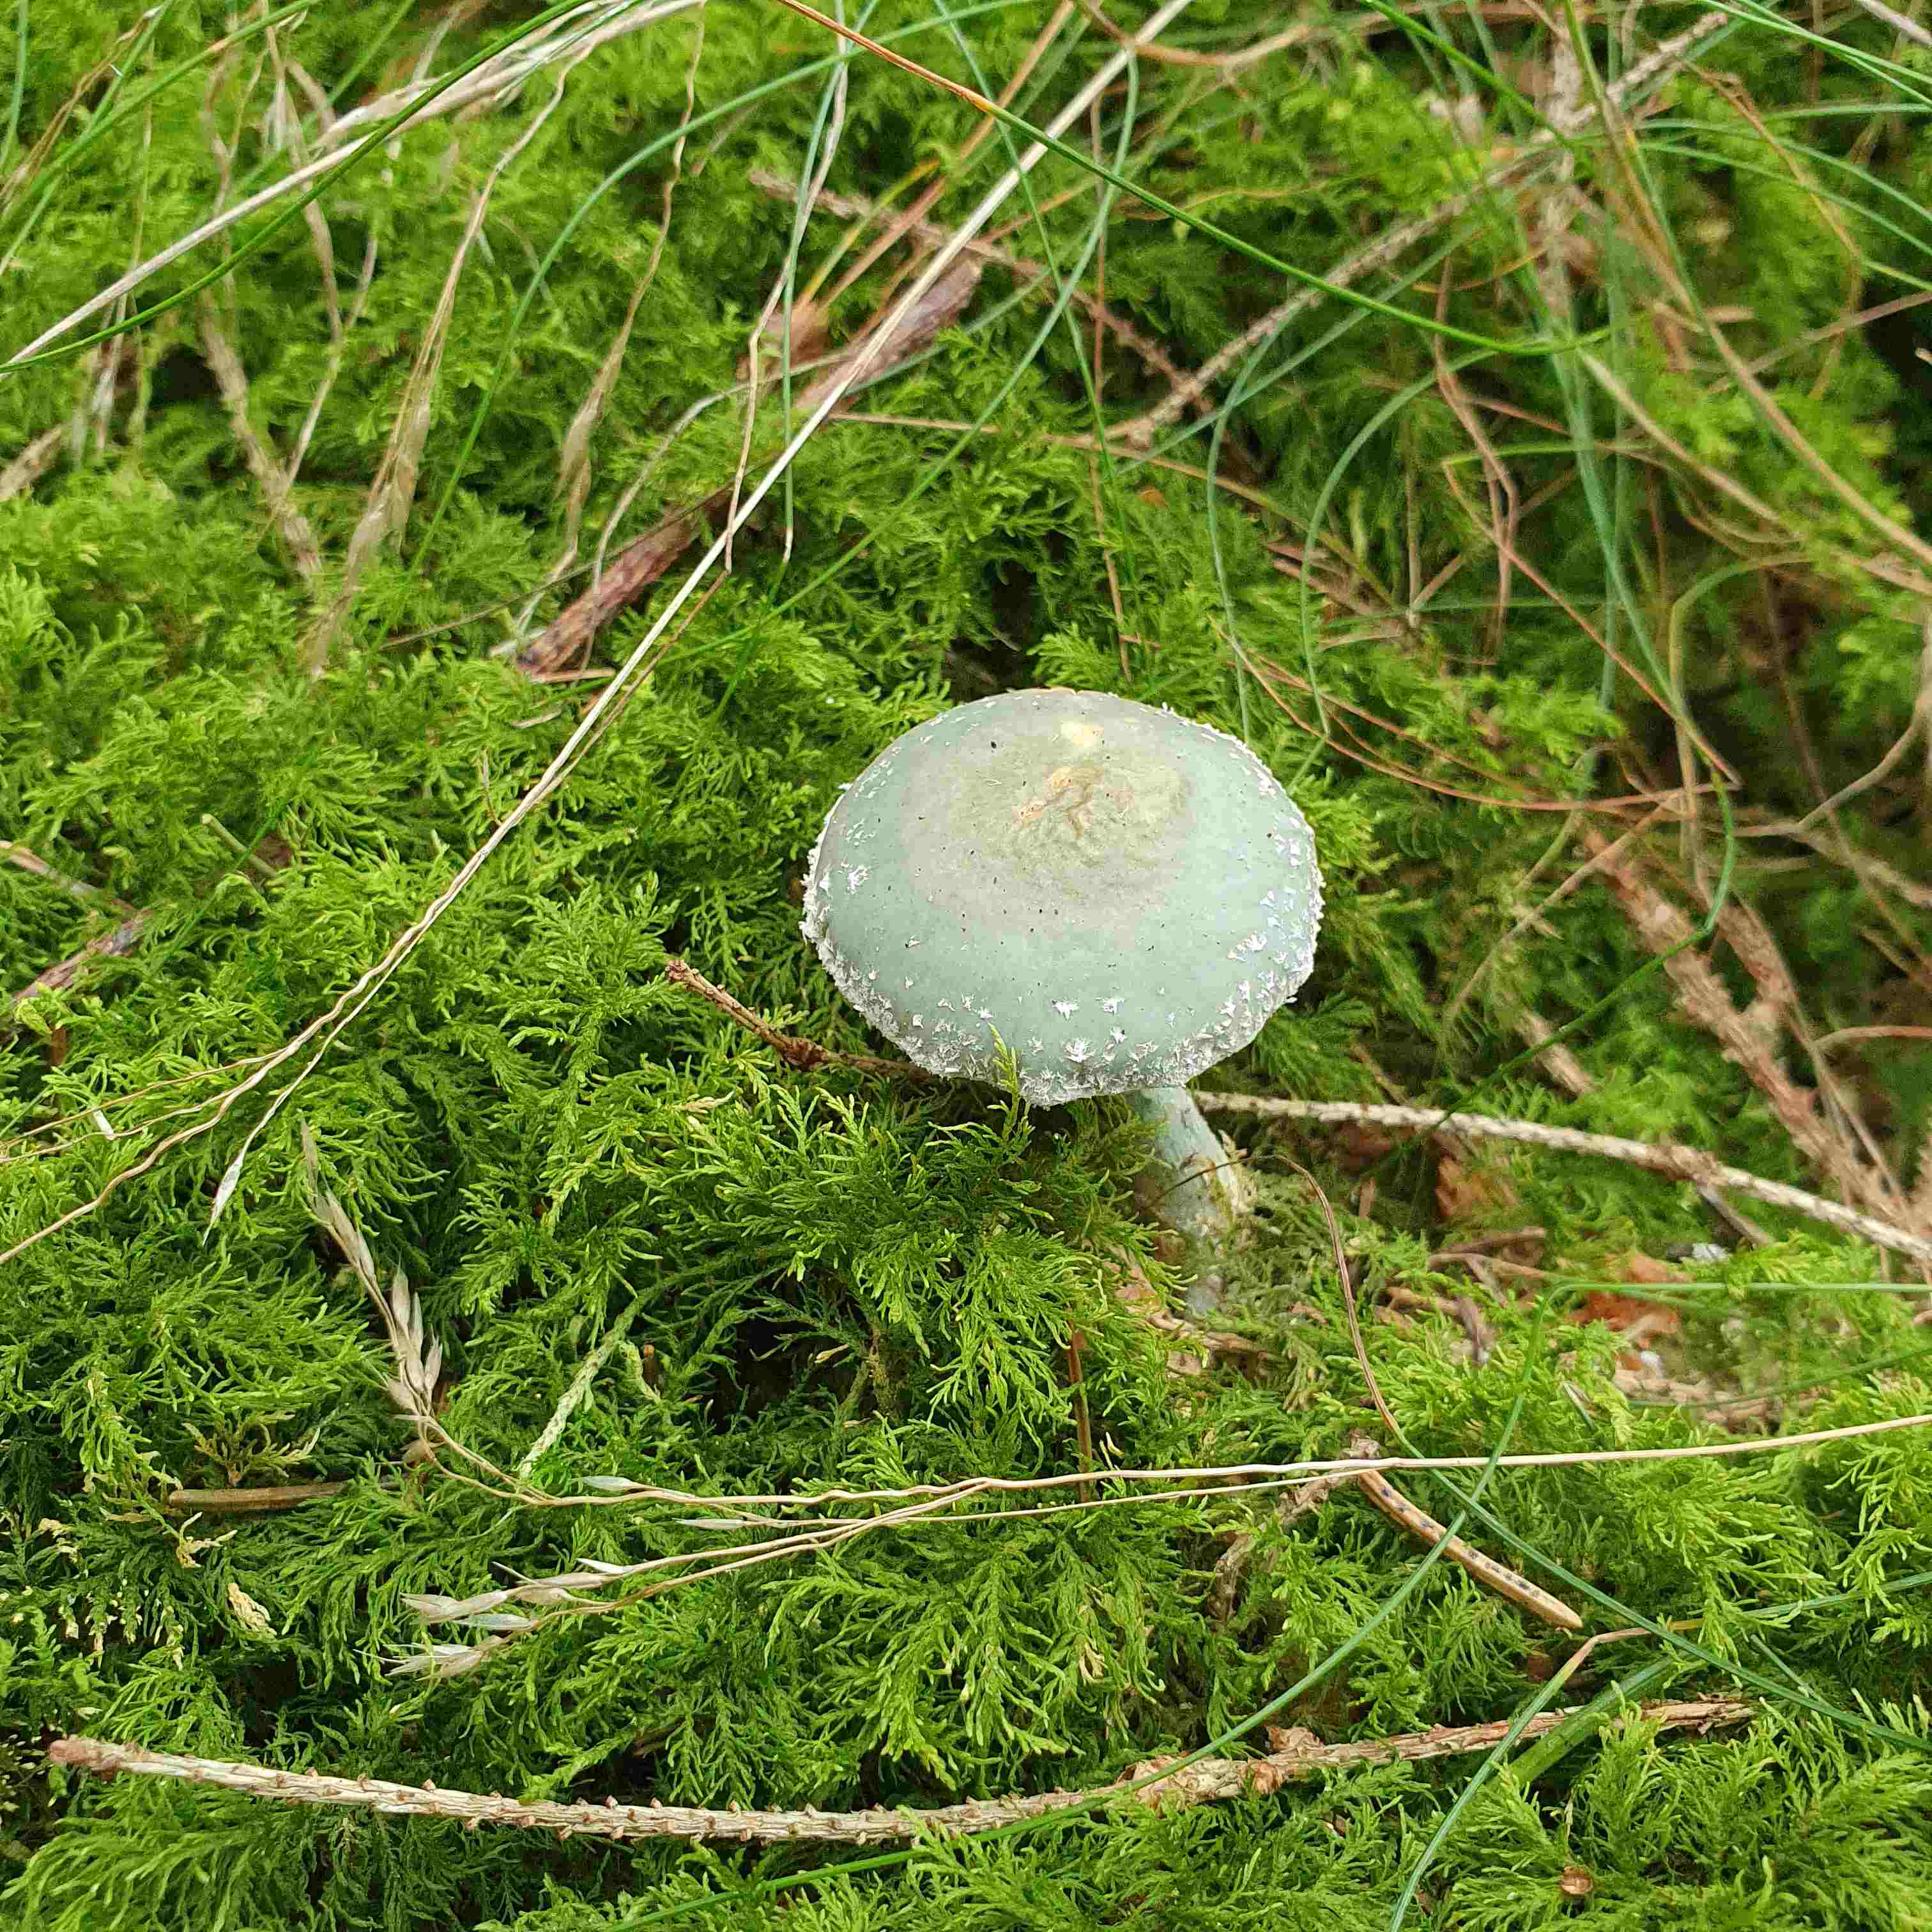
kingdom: Fungi
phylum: Basidiomycota
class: Agaricomycetes
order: Agaricales
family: Strophariaceae
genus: Stropharia
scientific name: Stropharia aeruginosa
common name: spanskgrøn bredblad
